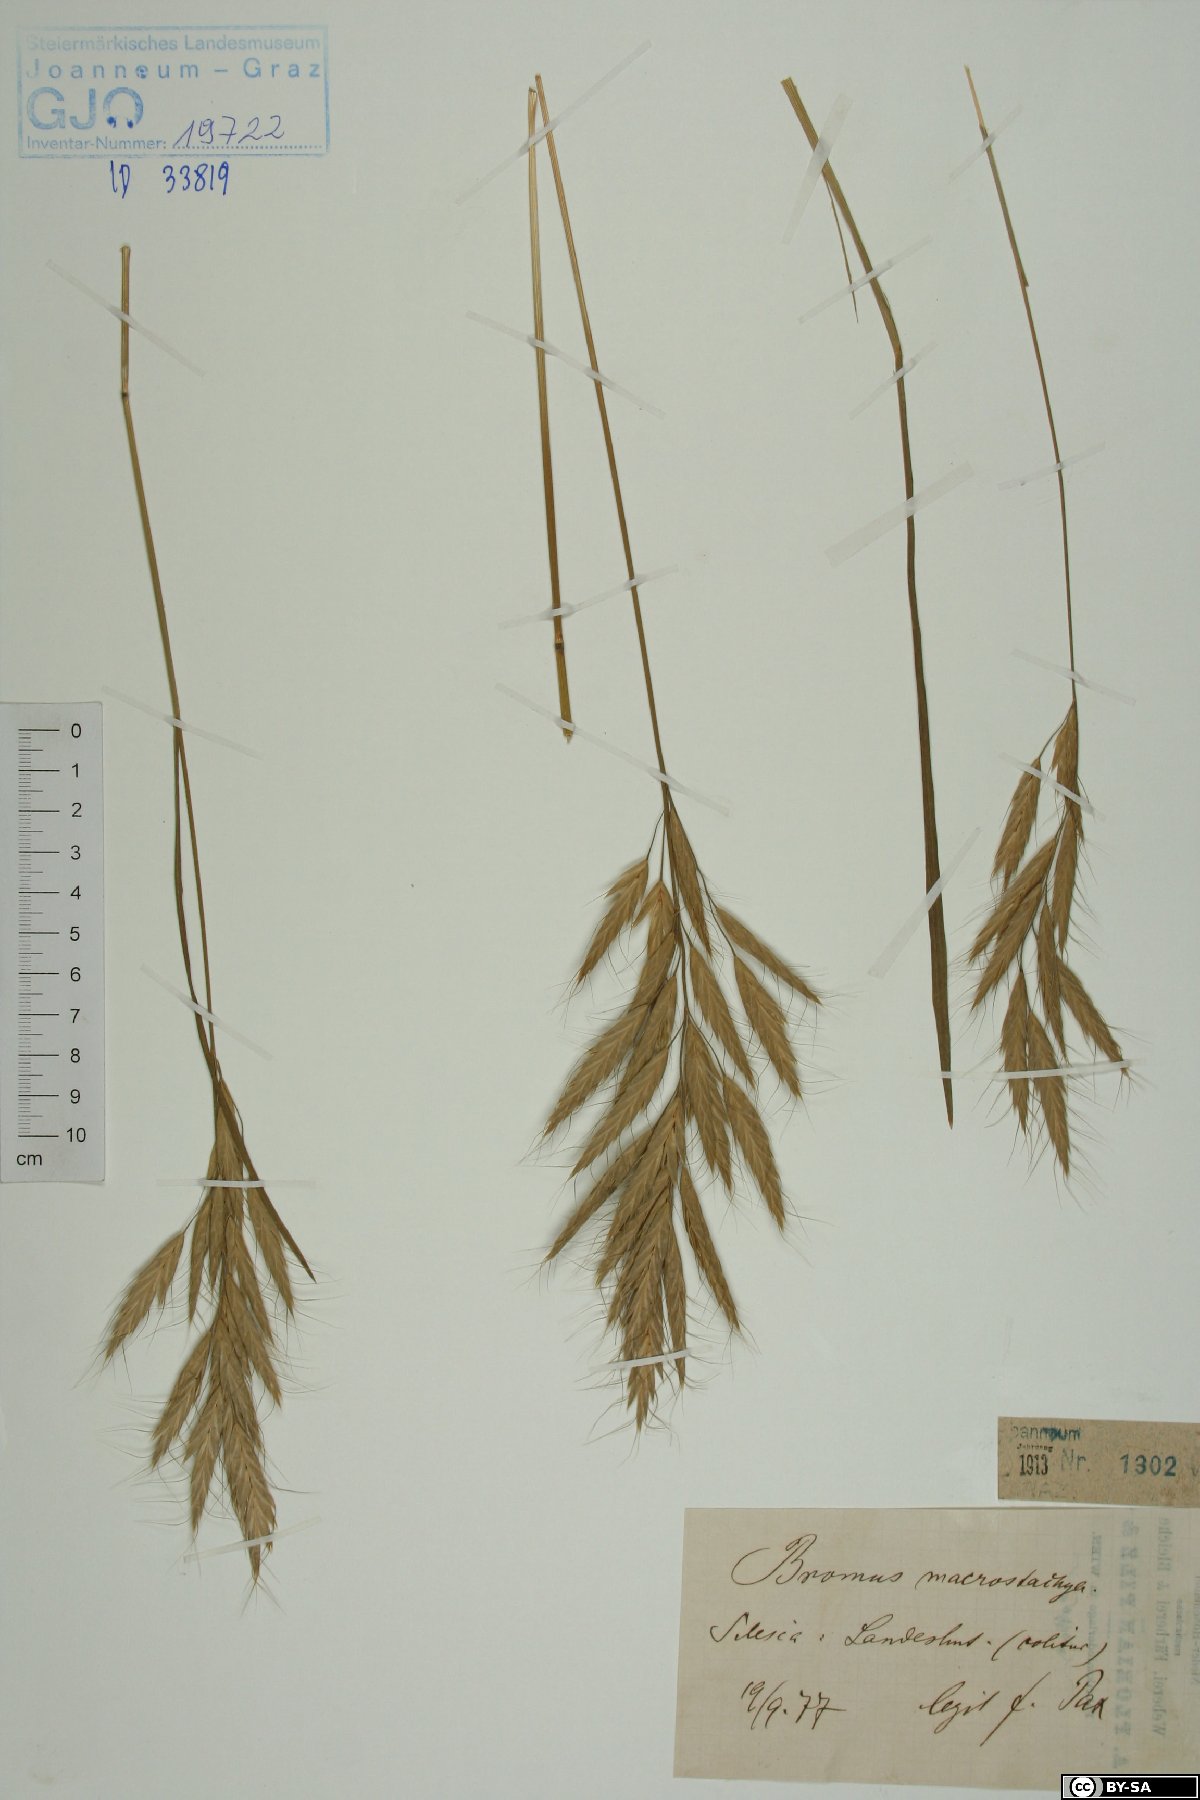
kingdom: Plantae
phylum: Tracheophyta
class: Liliopsida
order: Poales
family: Poaceae
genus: Bromus
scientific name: Bromus lanceolatus
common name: Mediterranean brome
